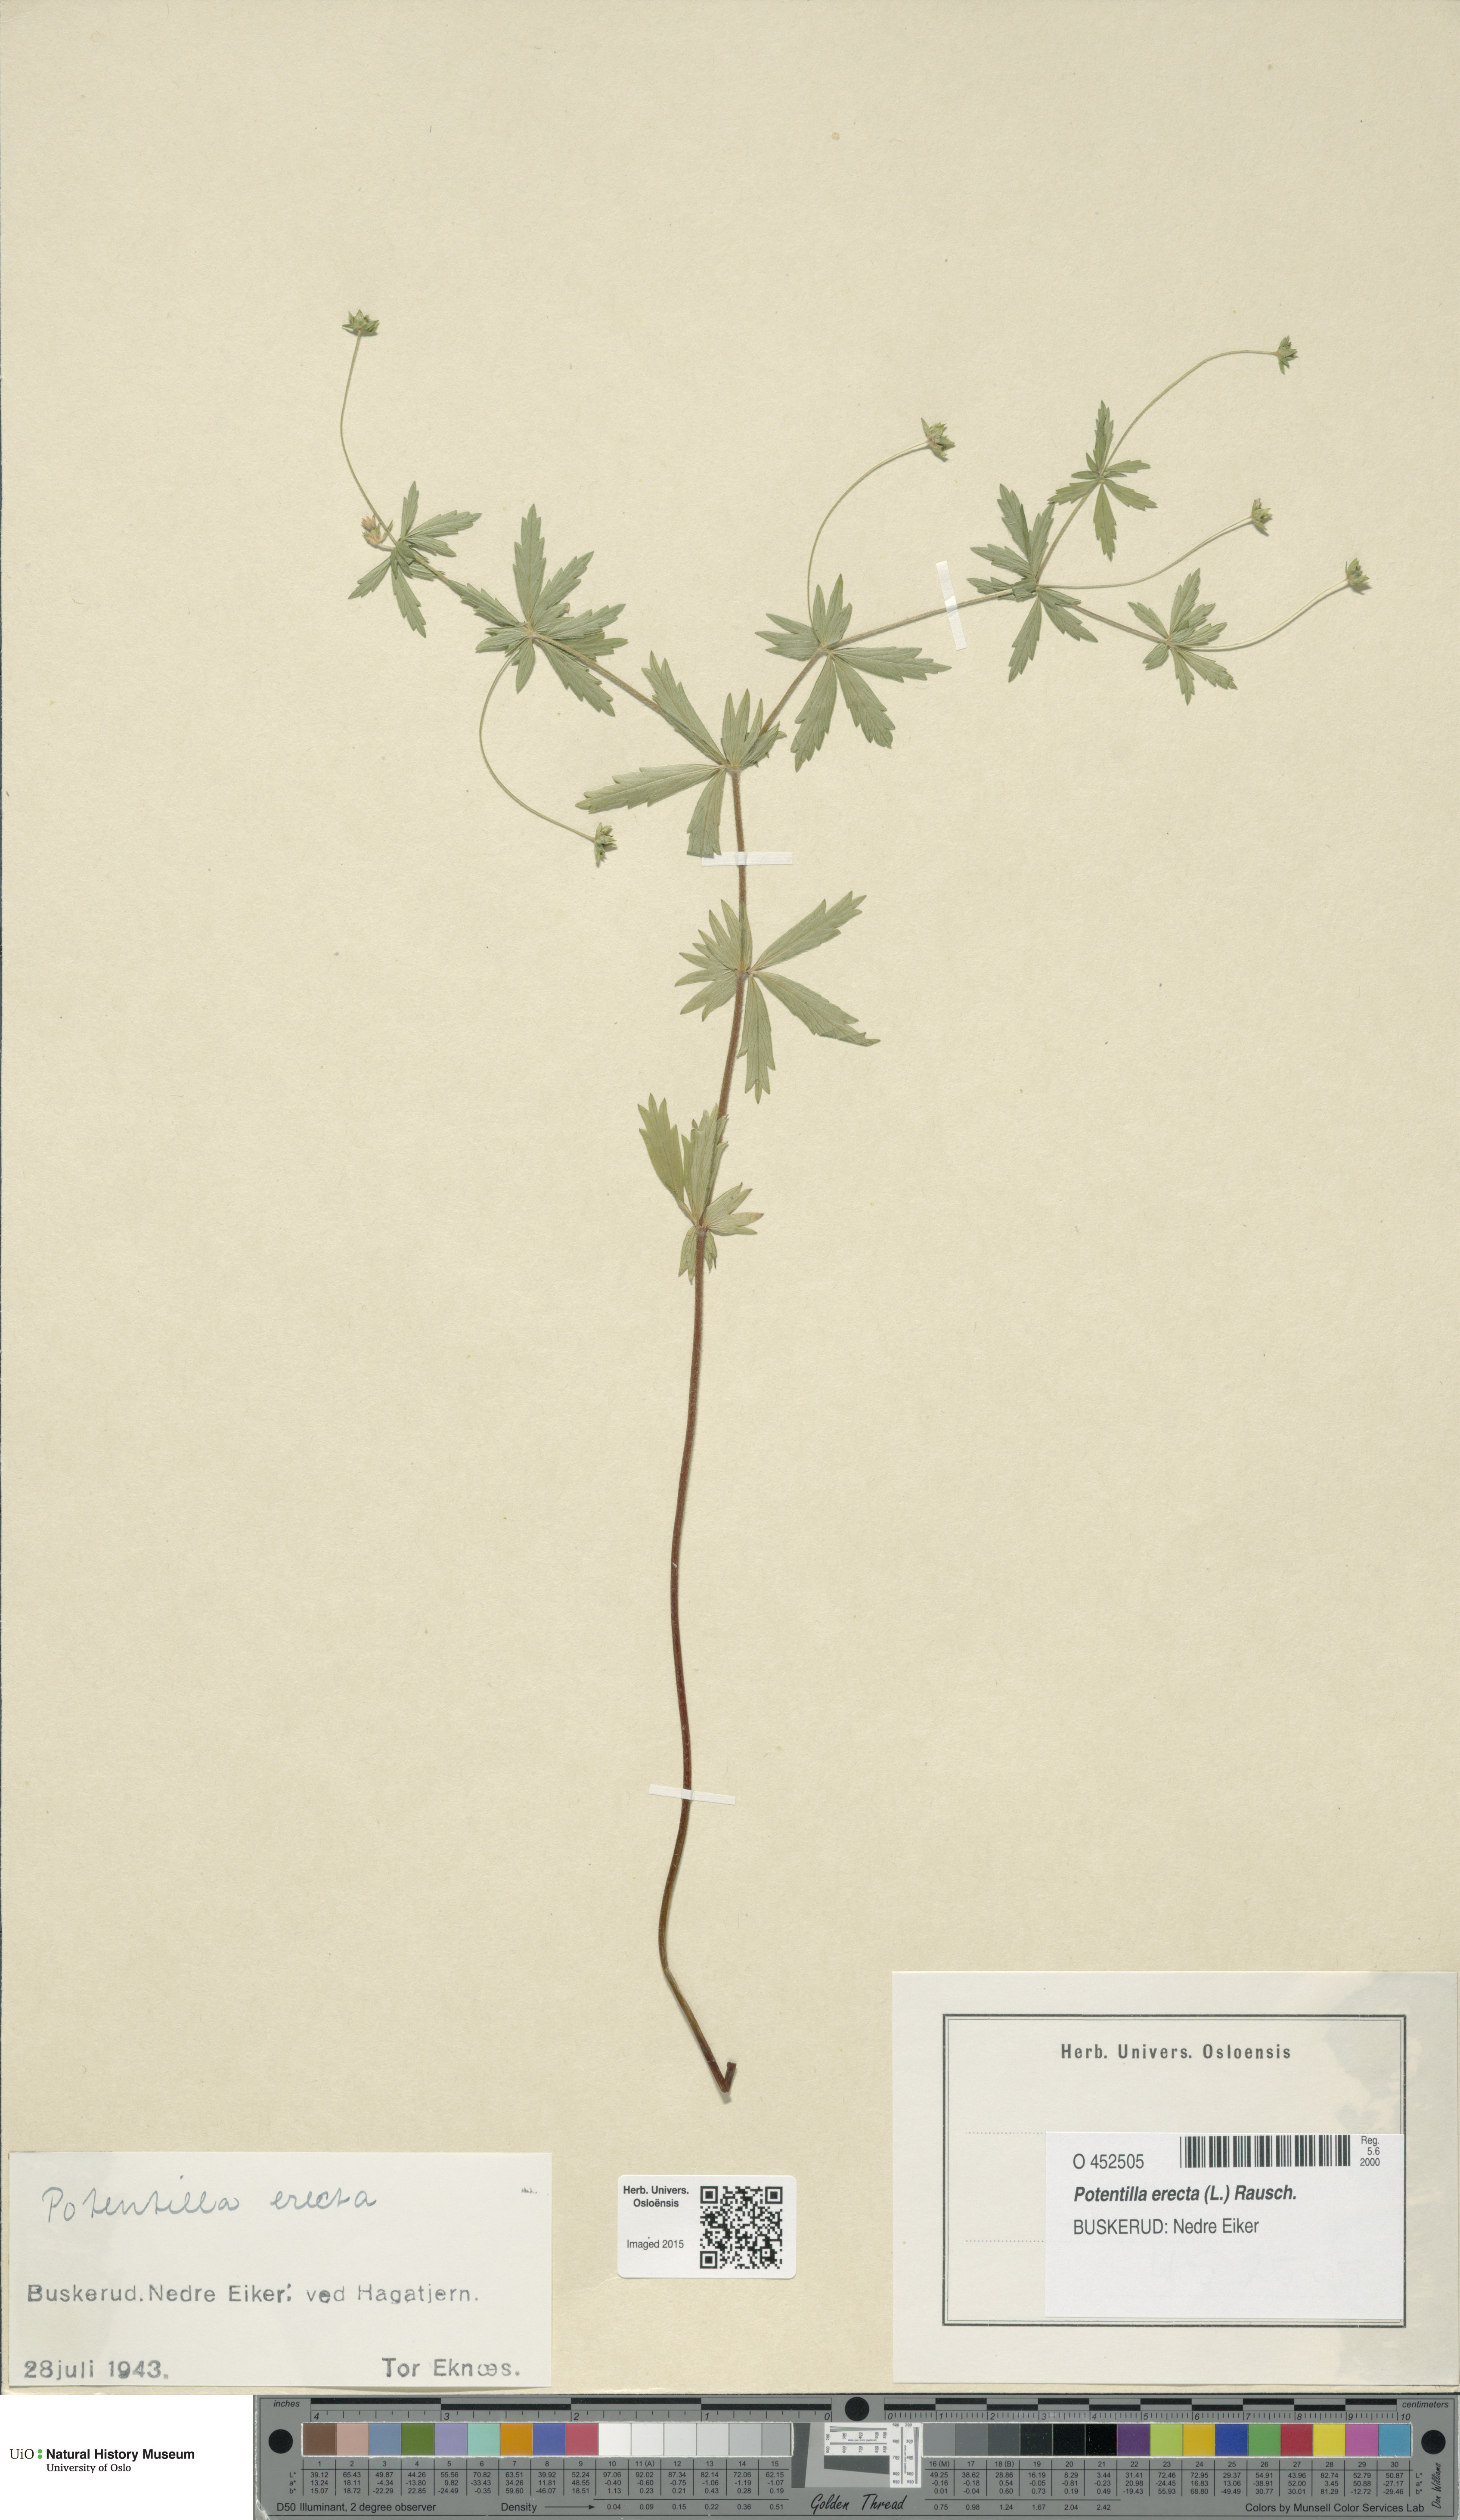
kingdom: Plantae
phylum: Tracheophyta
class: Magnoliopsida
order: Rosales
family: Rosaceae
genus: Potentilla
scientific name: Potentilla erecta
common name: Tormentil
